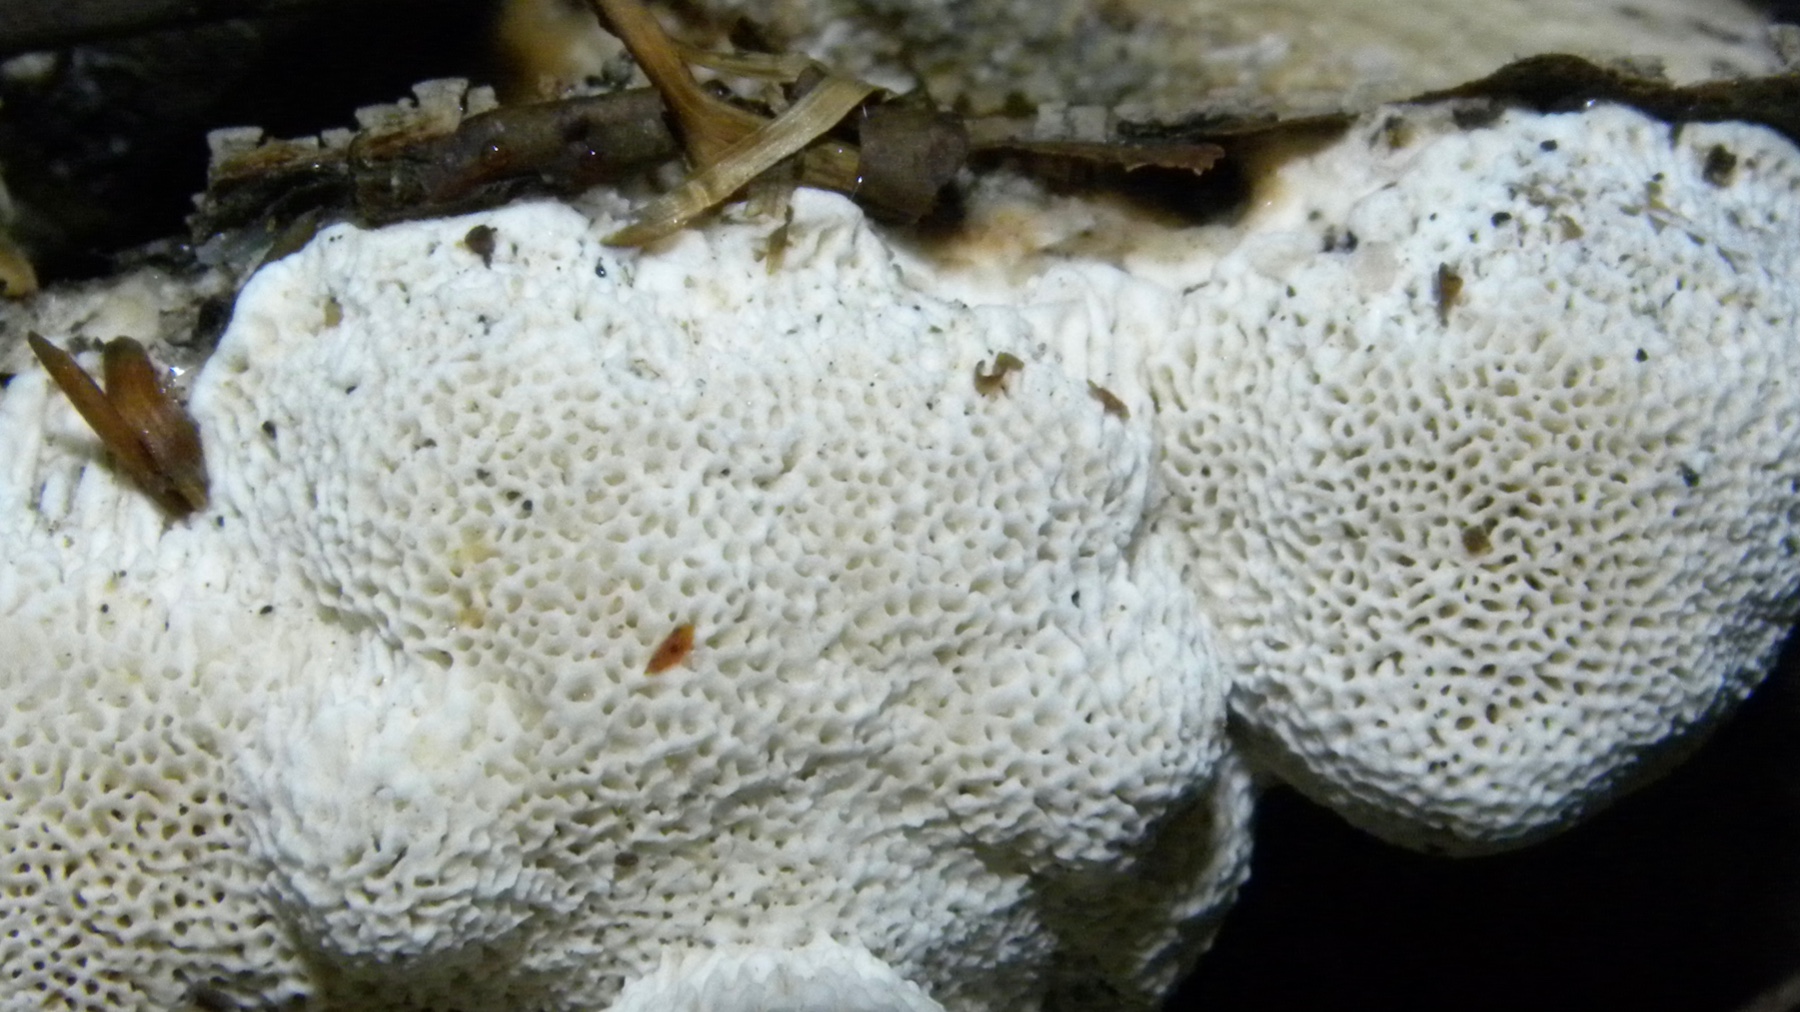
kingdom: Fungi
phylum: Basidiomycota
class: Agaricomycetes
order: Polyporales
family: Polyporaceae
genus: Trametes
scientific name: Trametes
